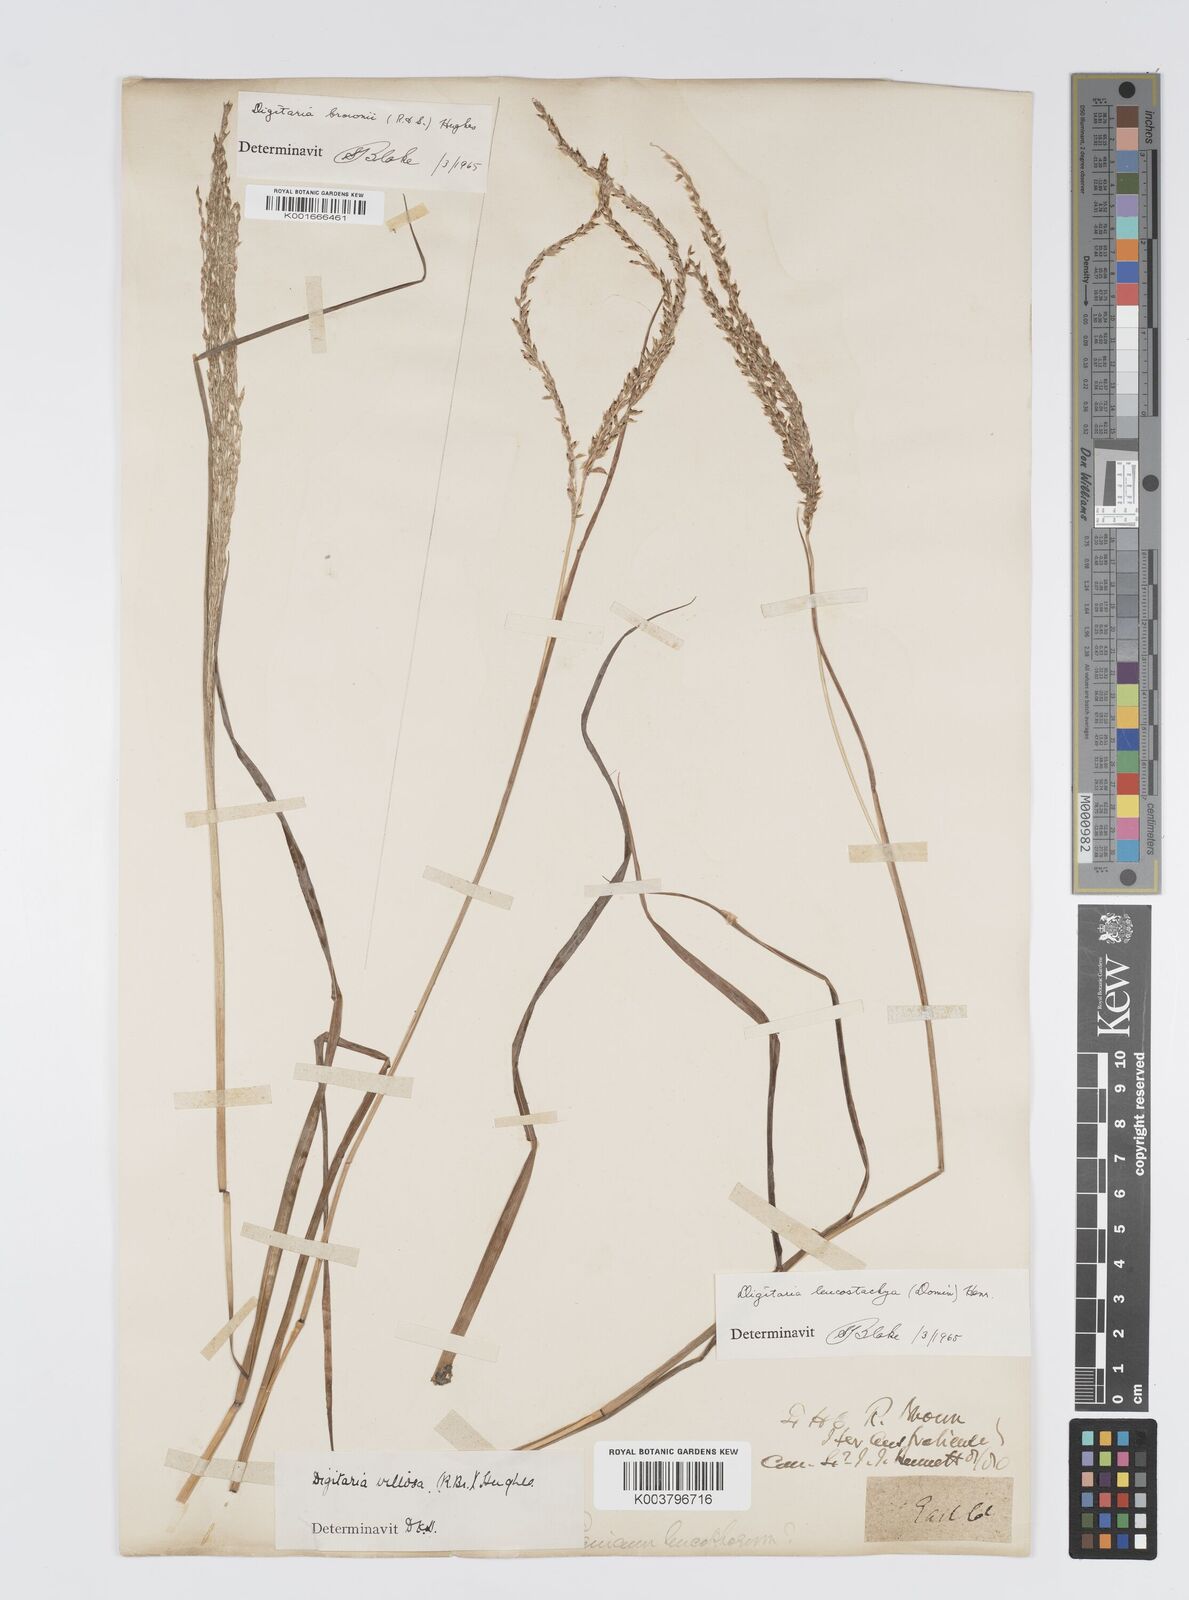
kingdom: Plantae
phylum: Tracheophyta
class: Liliopsida
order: Poales
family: Poaceae
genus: Digitaria
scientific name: Digitaria leucostachya
